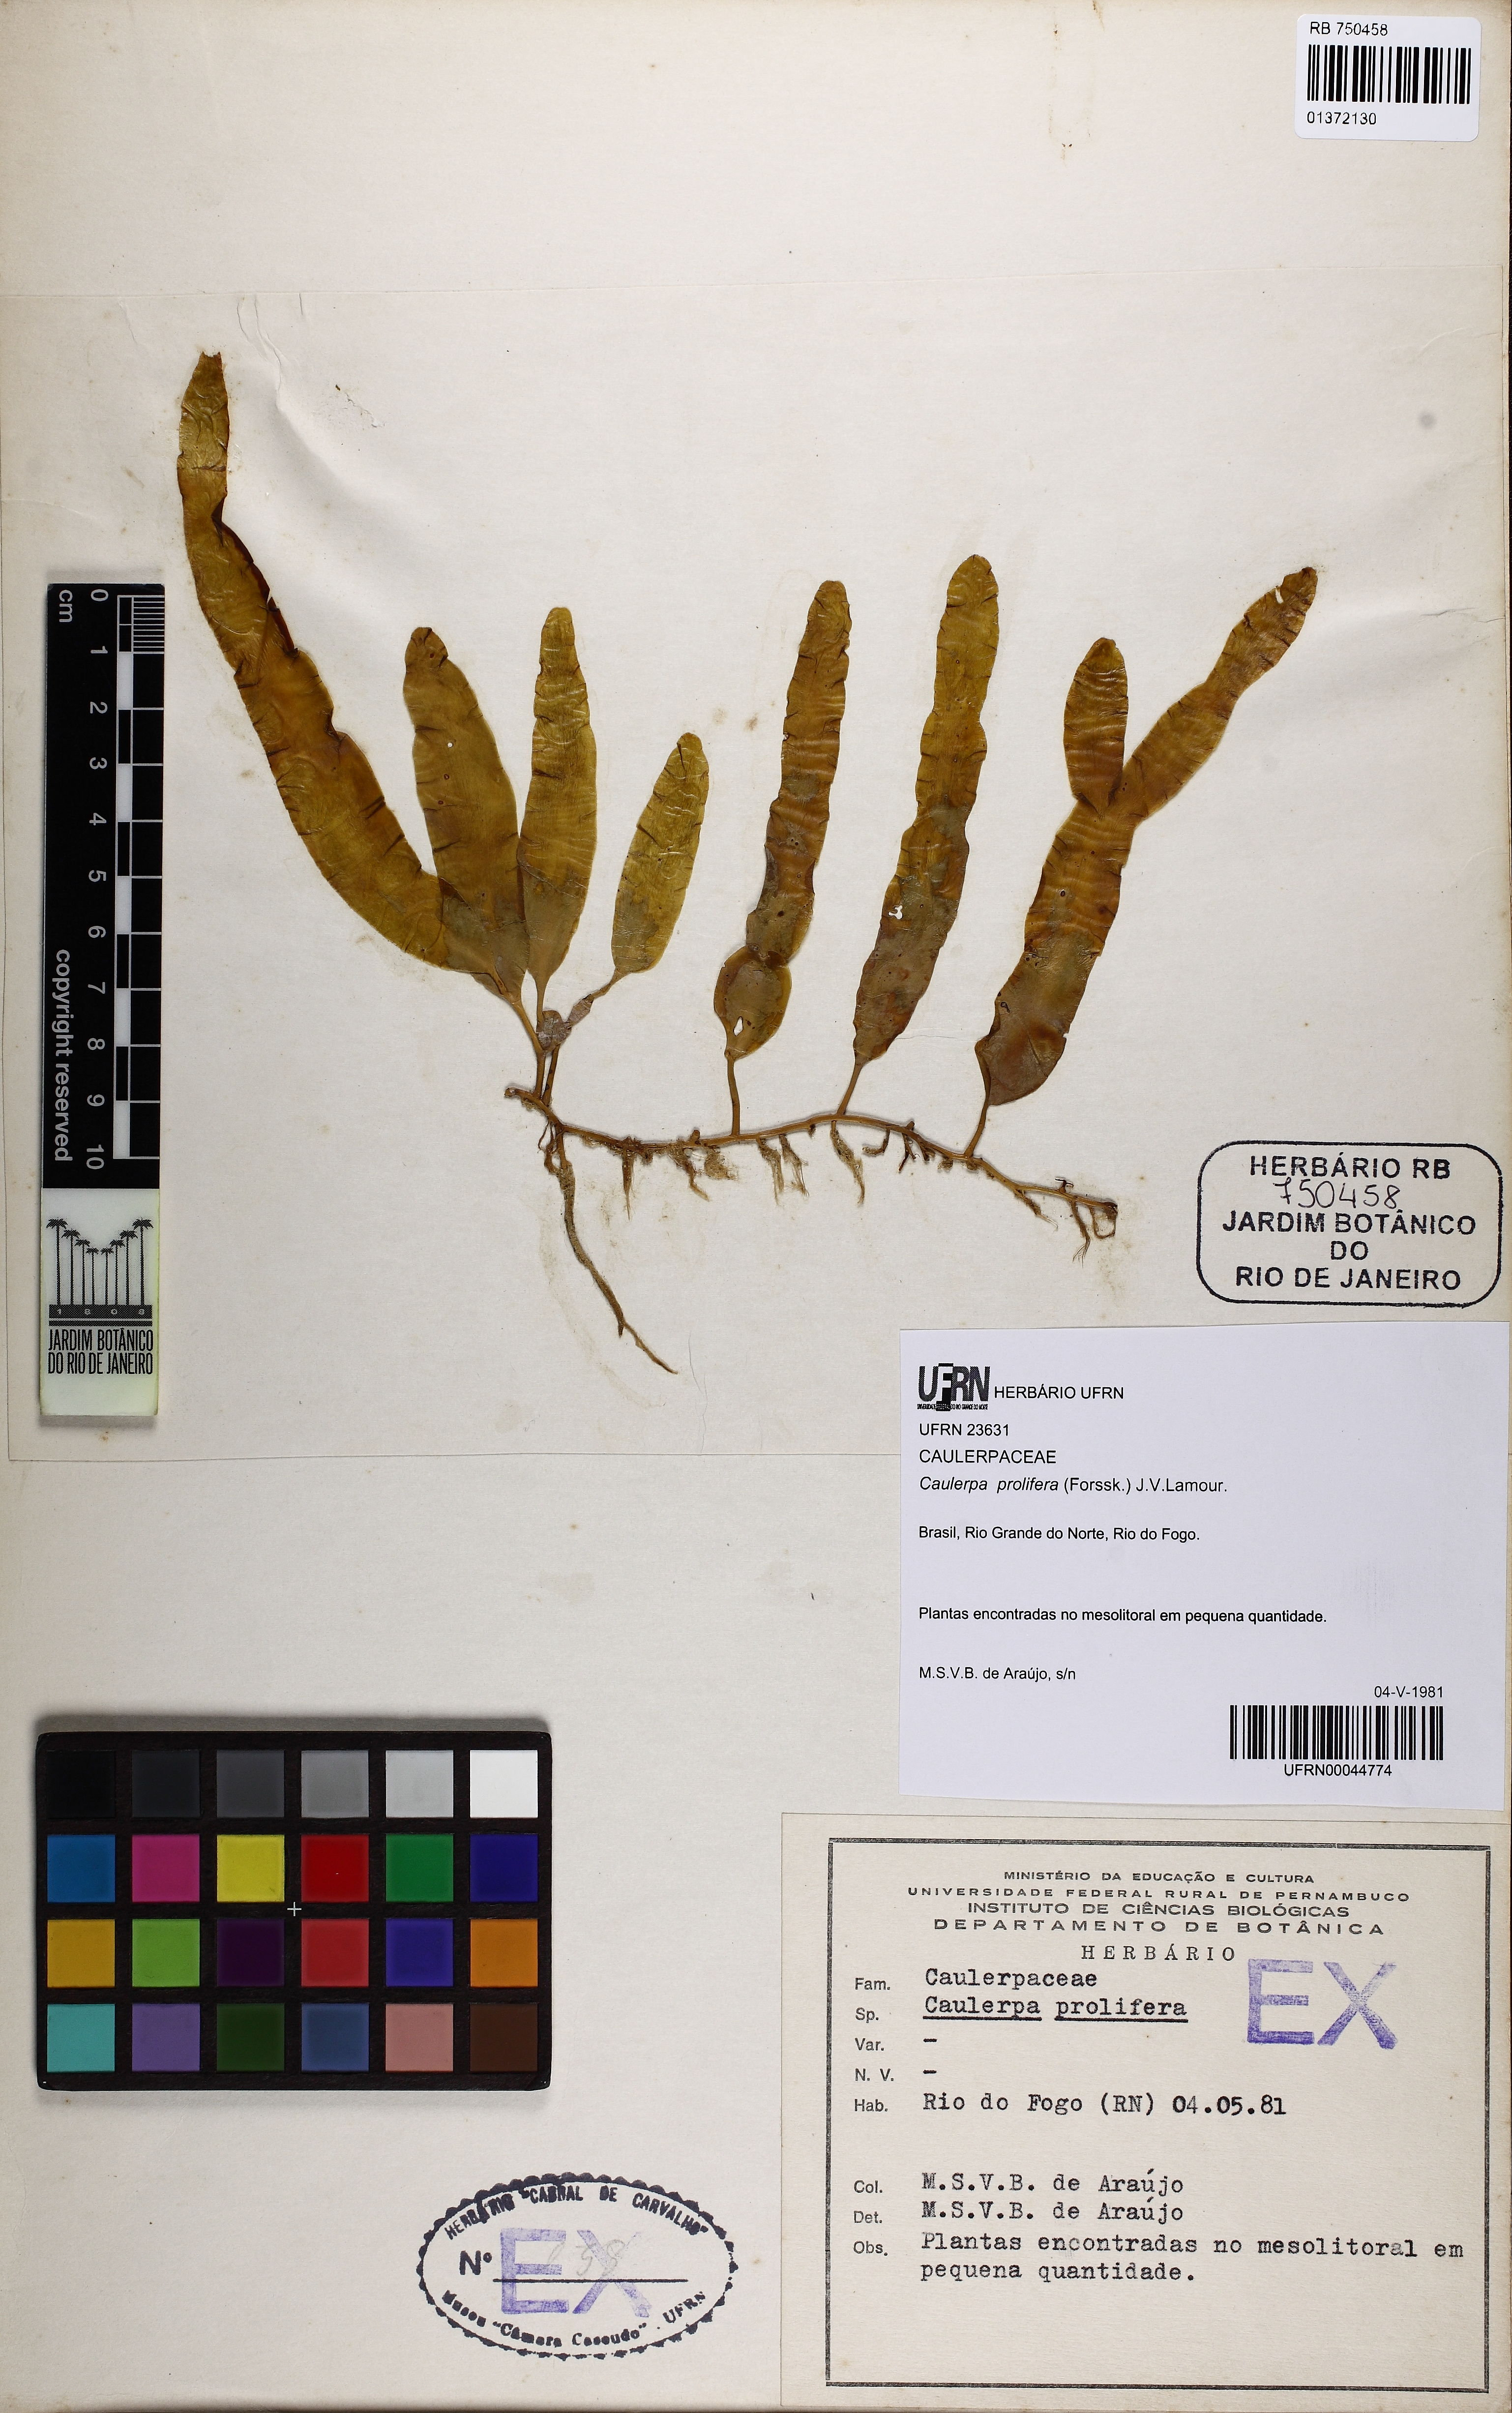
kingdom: Plantae
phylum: Chlorophyta
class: Ulvophyceae
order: Bryopsidales
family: Caulerpaceae
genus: Caulerpa
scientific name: Caulerpa prolifera
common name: Oval-blade algae
